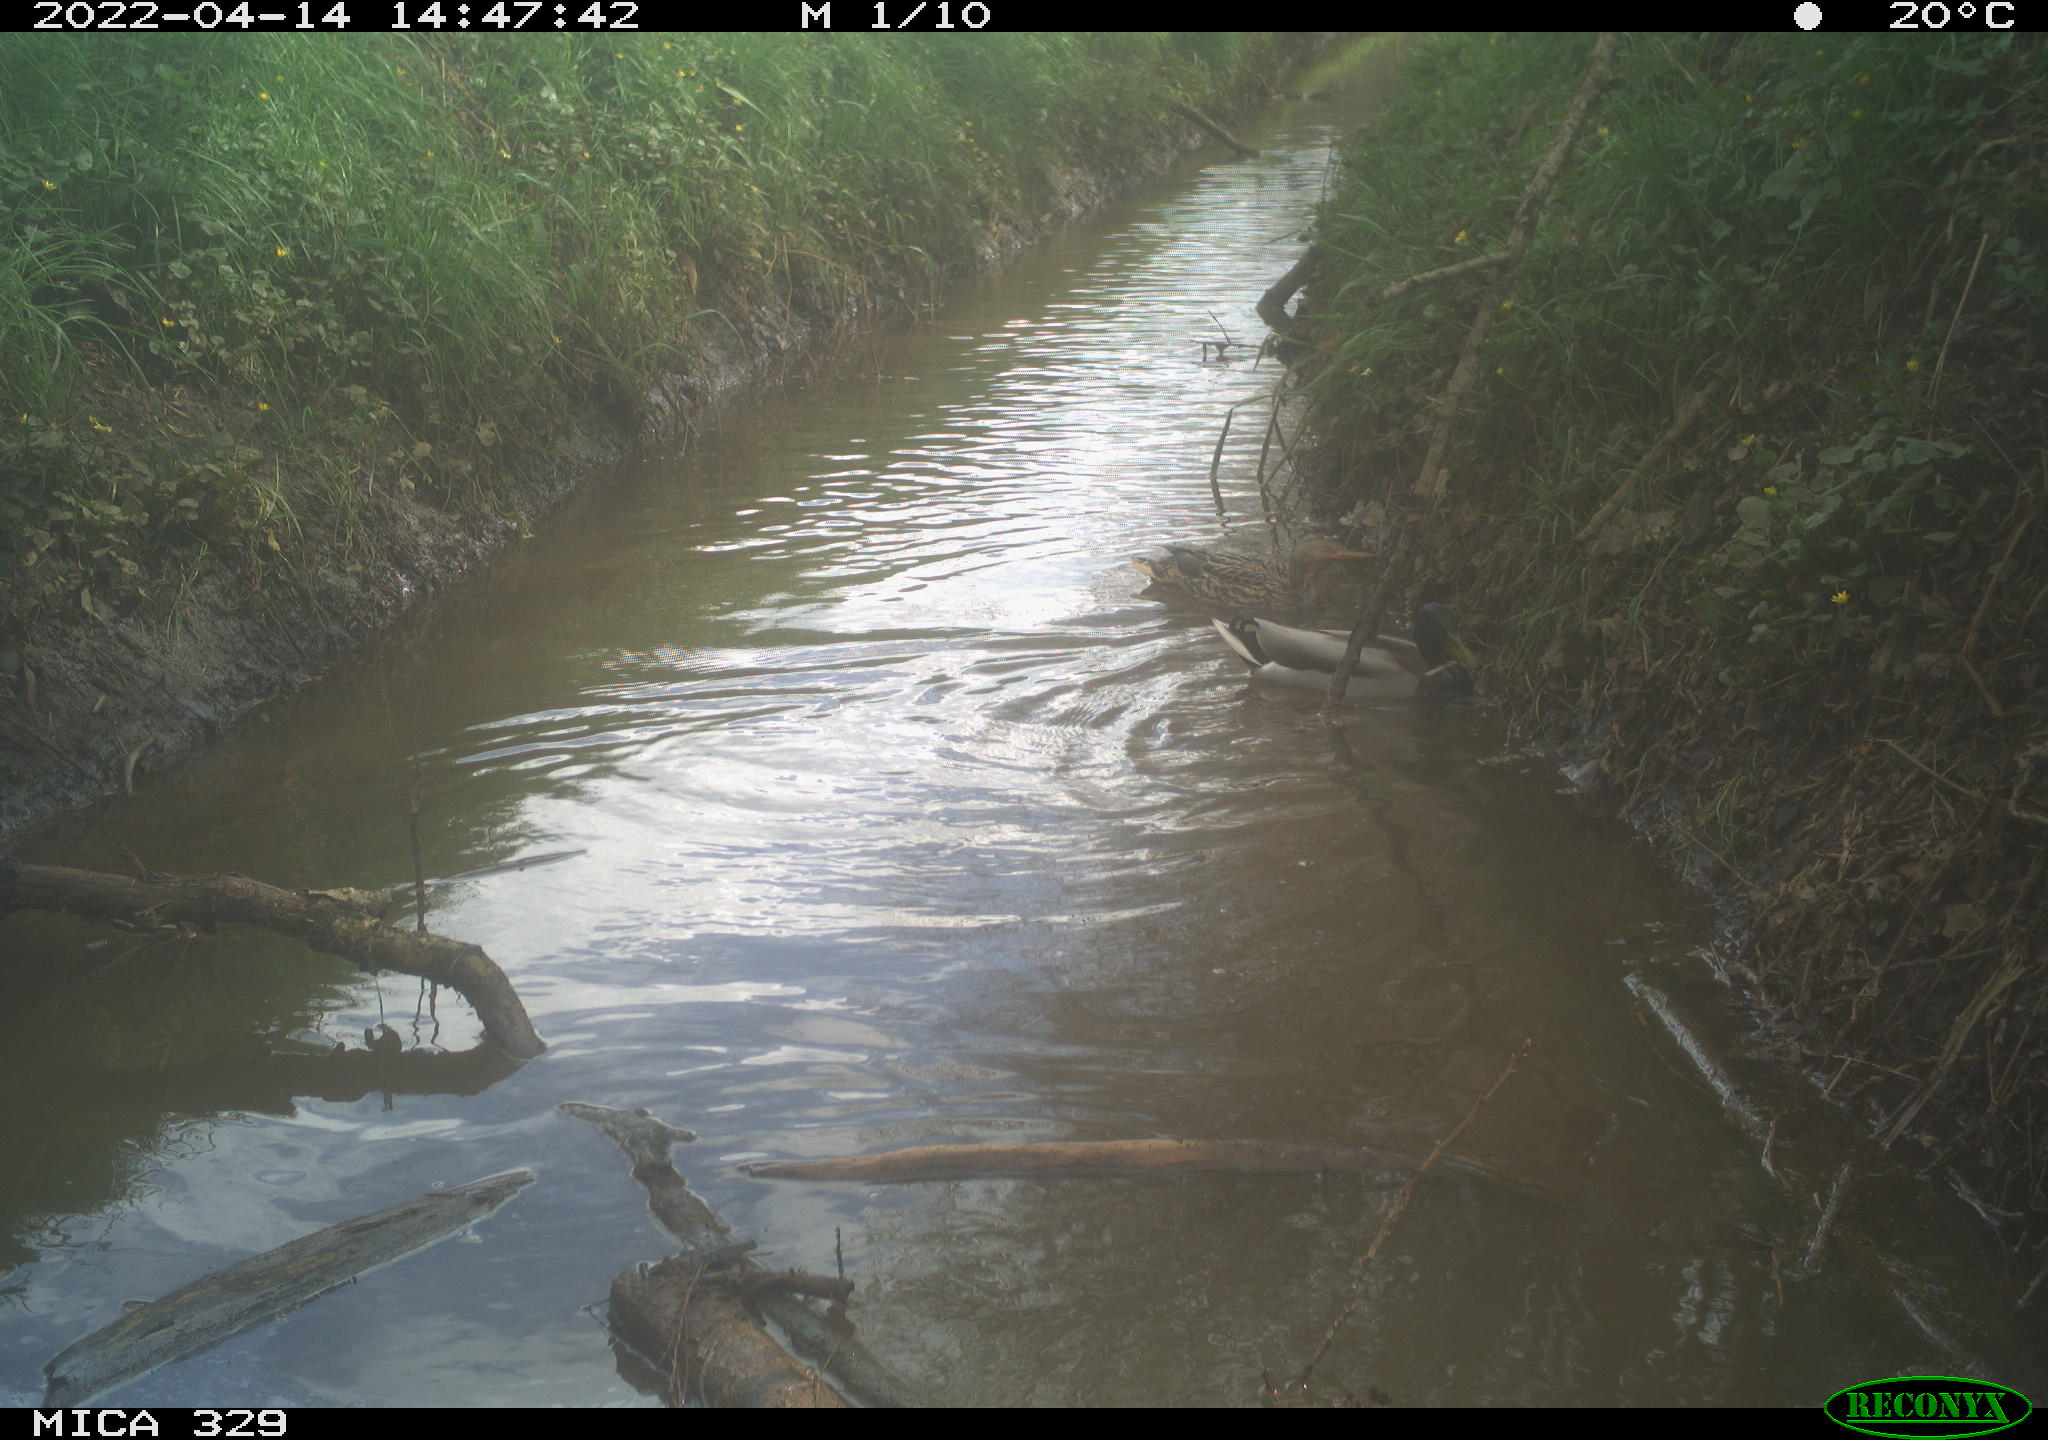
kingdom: Animalia
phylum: Chordata
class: Aves
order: Anseriformes
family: Anatidae
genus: Anas
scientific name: Anas platyrhynchos
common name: Mallard
